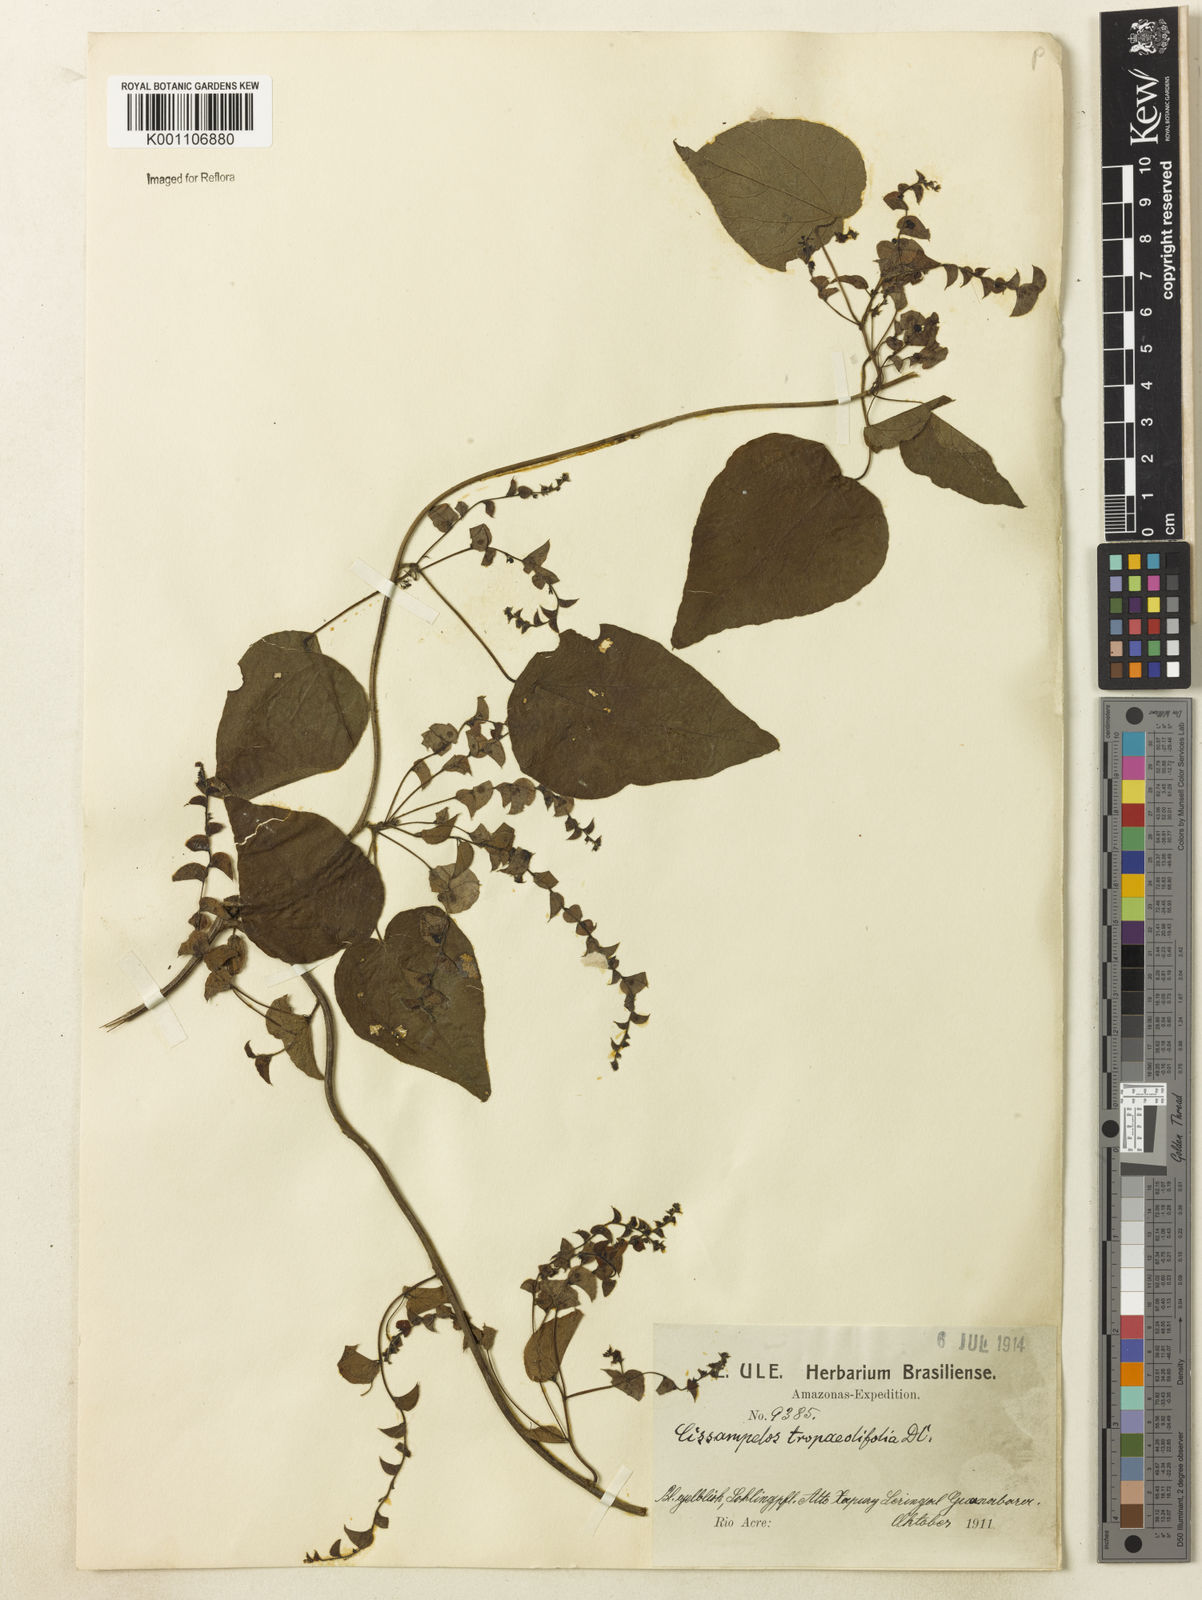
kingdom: Plantae
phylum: Tracheophyta
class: Magnoliopsida
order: Ranunculales
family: Menispermaceae
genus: Cissampelos
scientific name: Cissampelos tropaeolifolia
